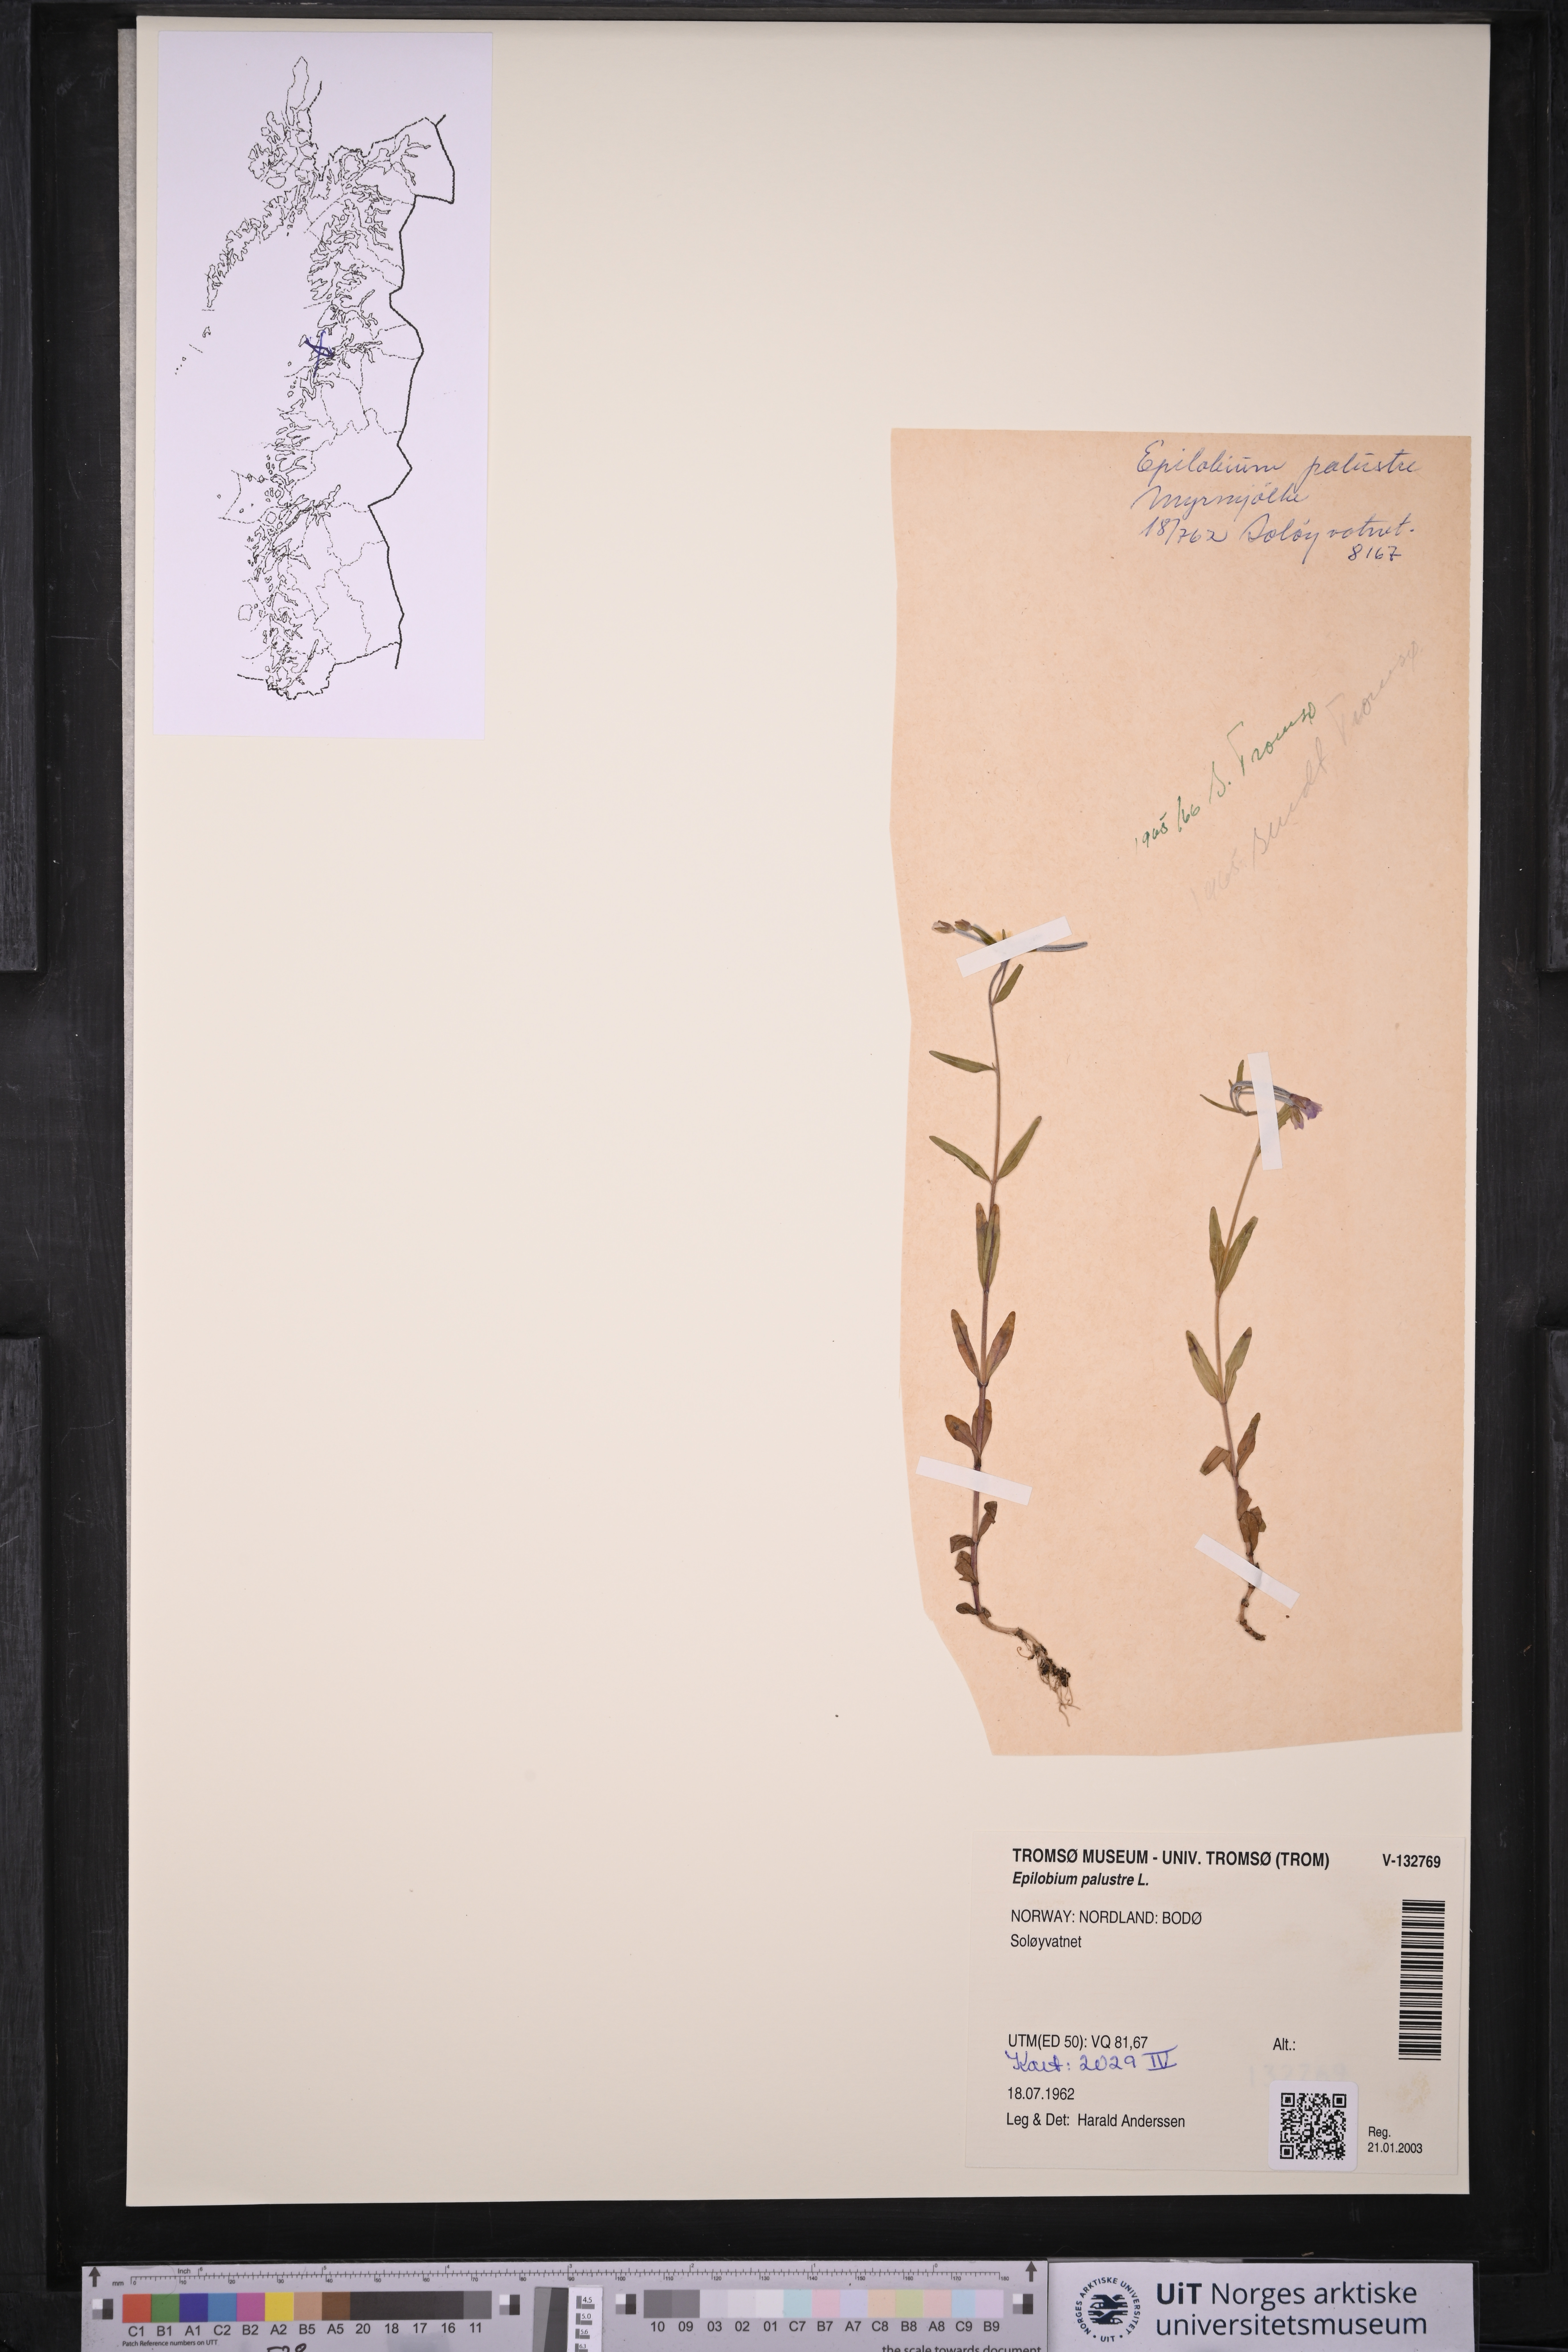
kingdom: Plantae
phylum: Tracheophyta
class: Magnoliopsida
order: Myrtales
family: Onagraceae
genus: Epilobium
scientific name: Epilobium palustre
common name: Marsh willowherb
